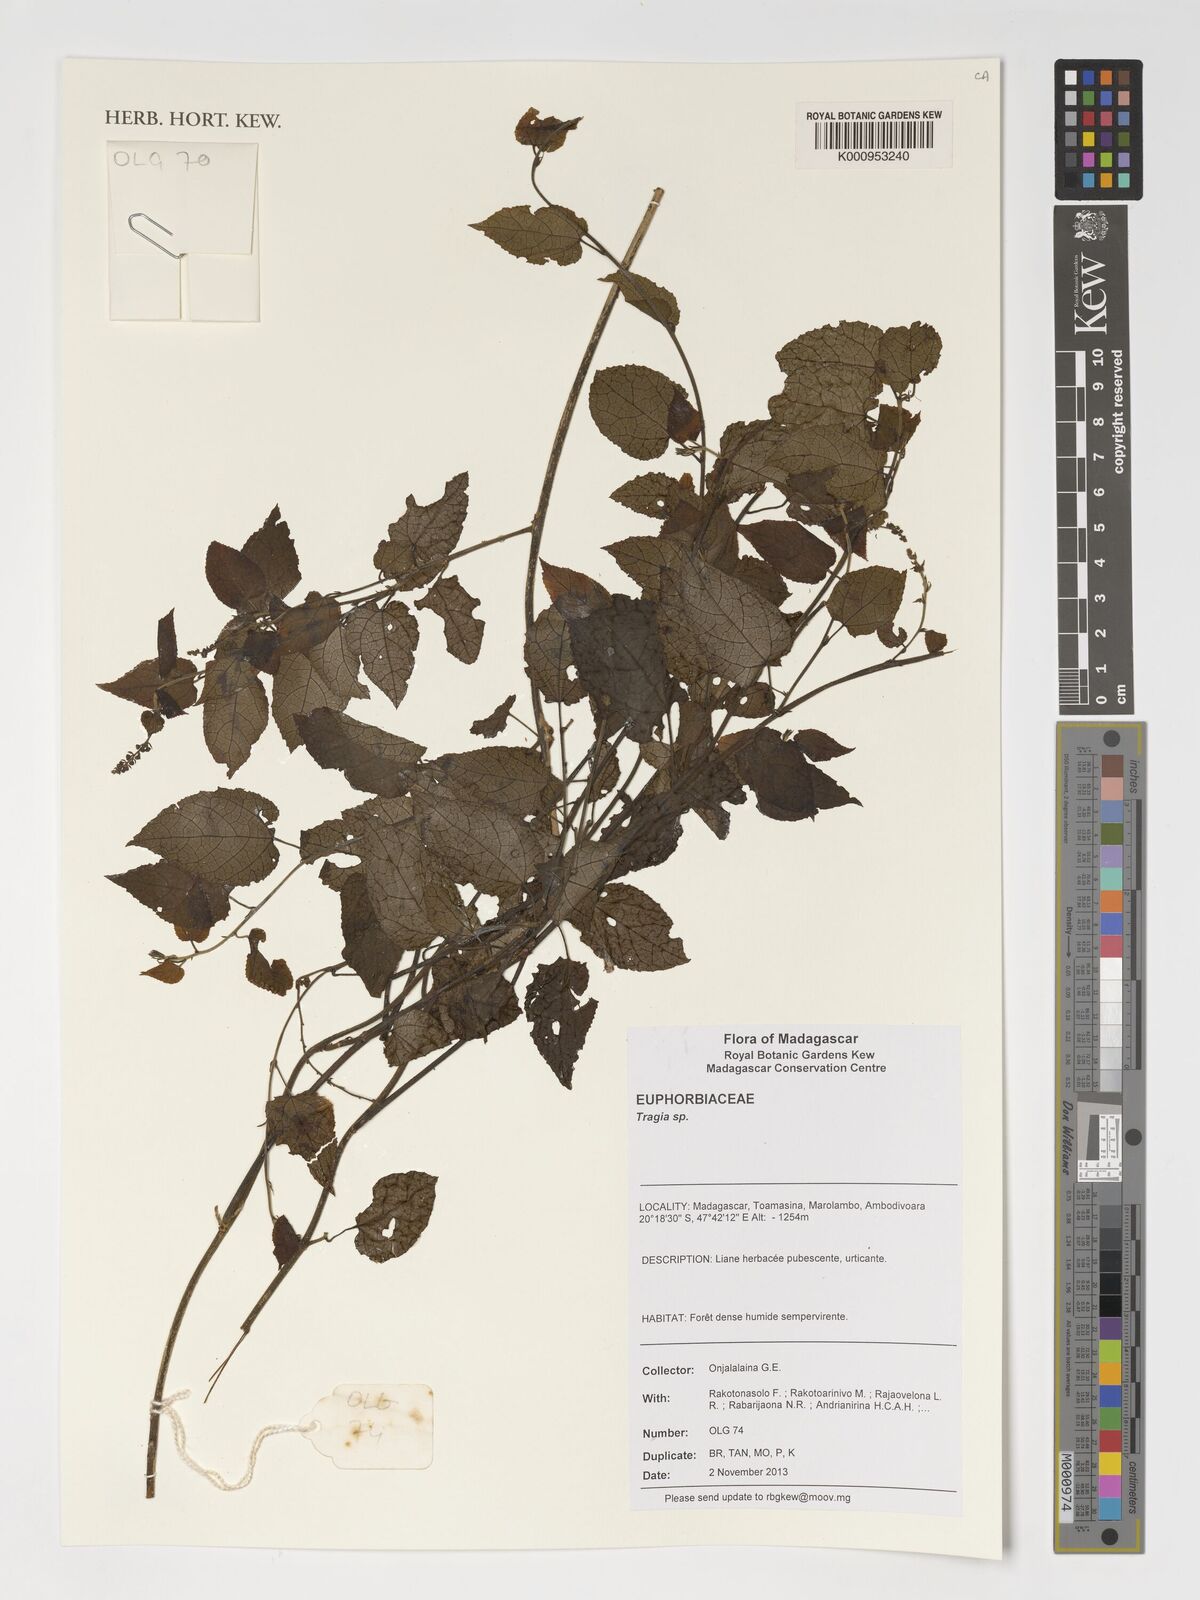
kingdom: Plantae
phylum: Tracheophyta
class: Magnoliopsida
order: Malpighiales
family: Euphorbiaceae
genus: Tragia
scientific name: Tragia
